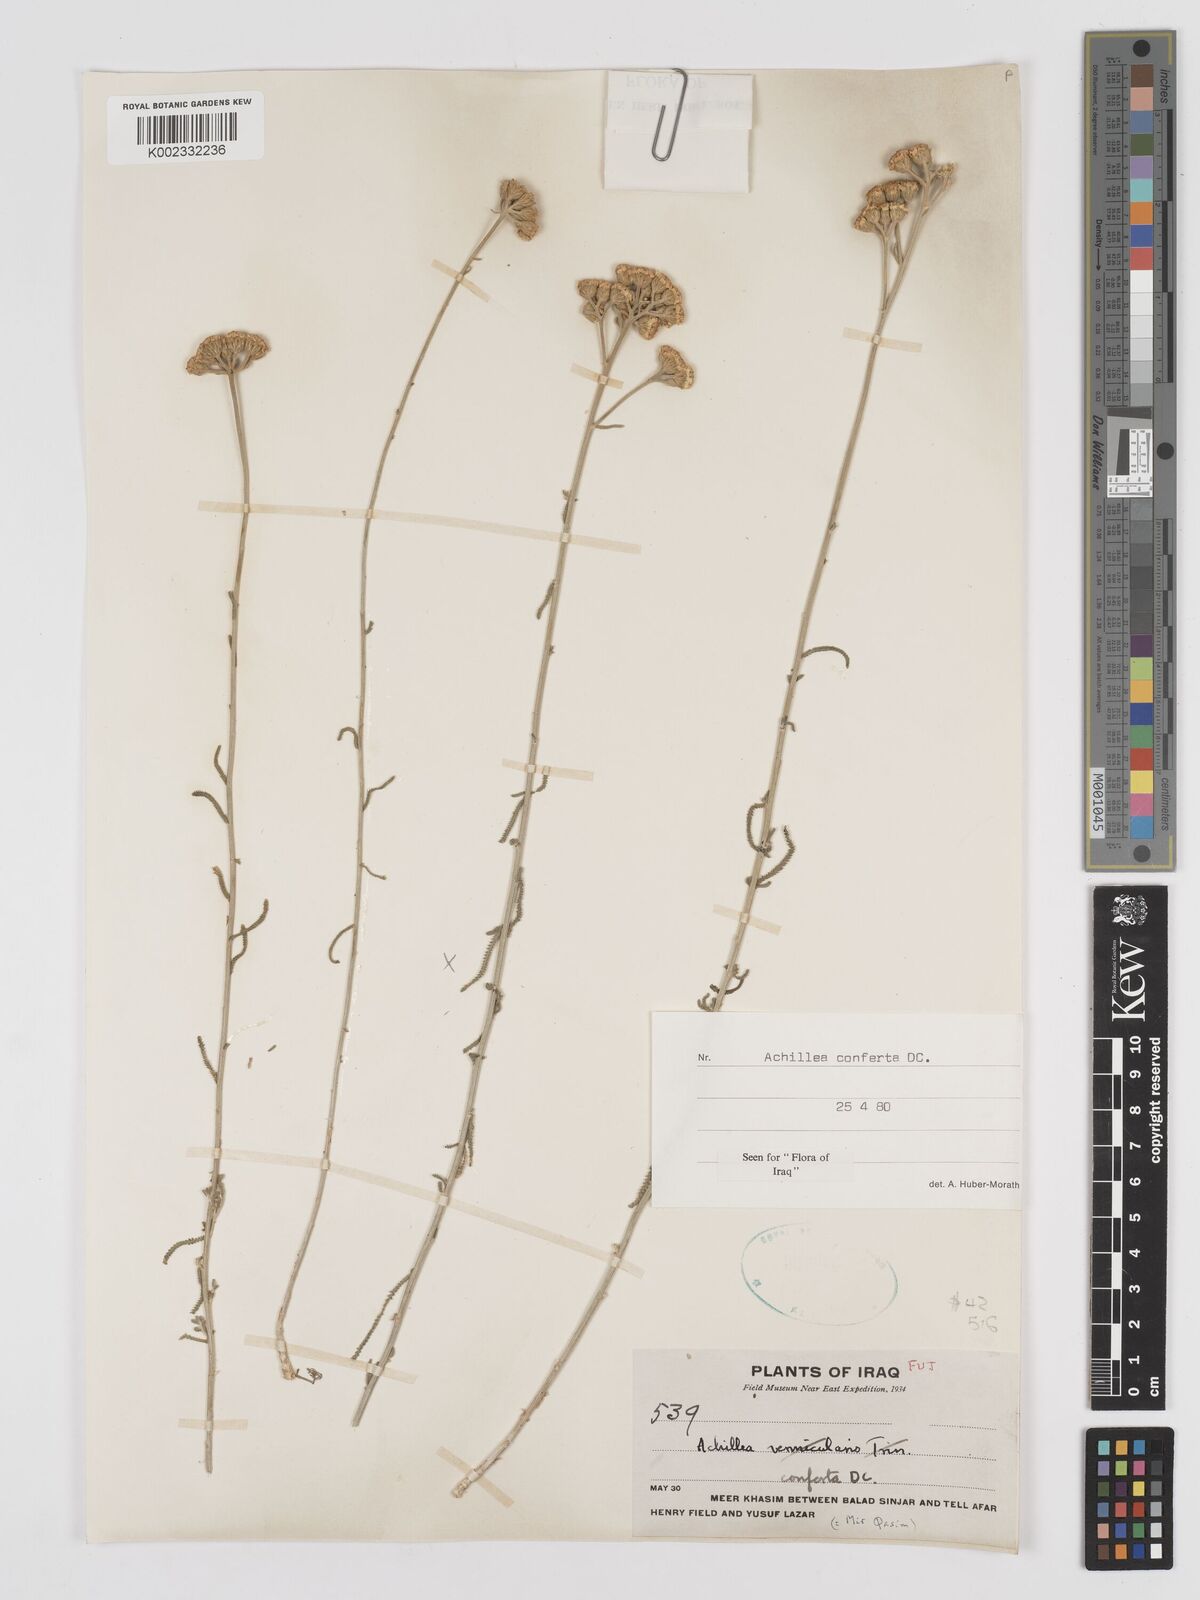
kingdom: Plantae
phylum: Tracheophyta
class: Magnoliopsida
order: Asterales
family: Asteraceae
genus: Achillea
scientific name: Achillea conferta
